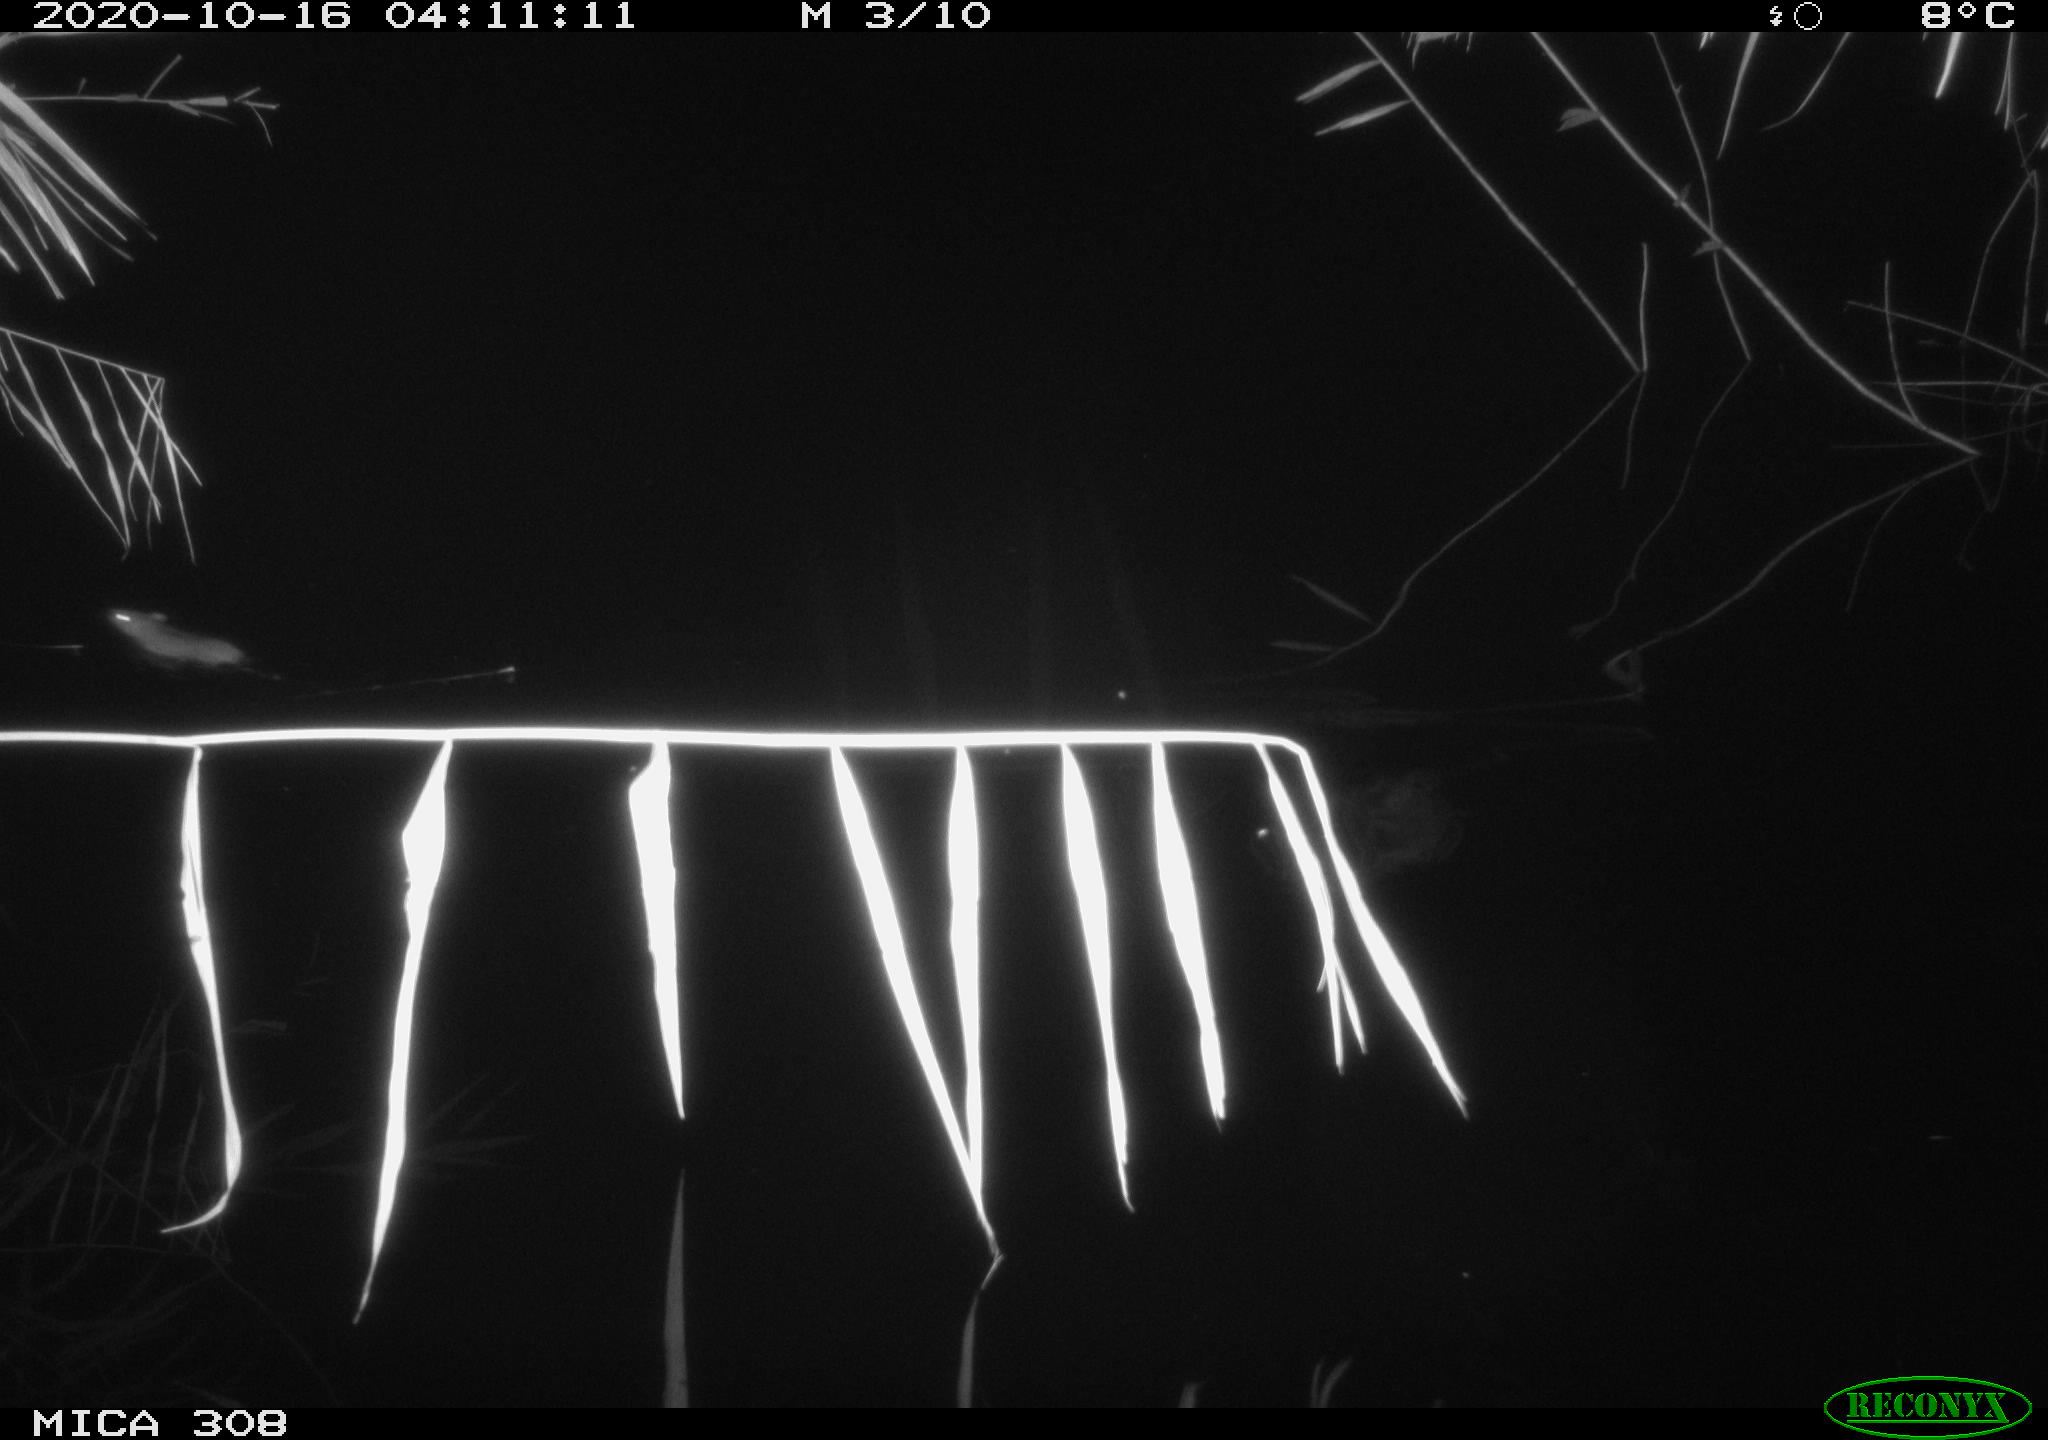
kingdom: Animalia
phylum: Chordata
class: Mammalia
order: Rodentia
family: Muridae
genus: Rattus
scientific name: Rattus norvegicus
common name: Brown rat
